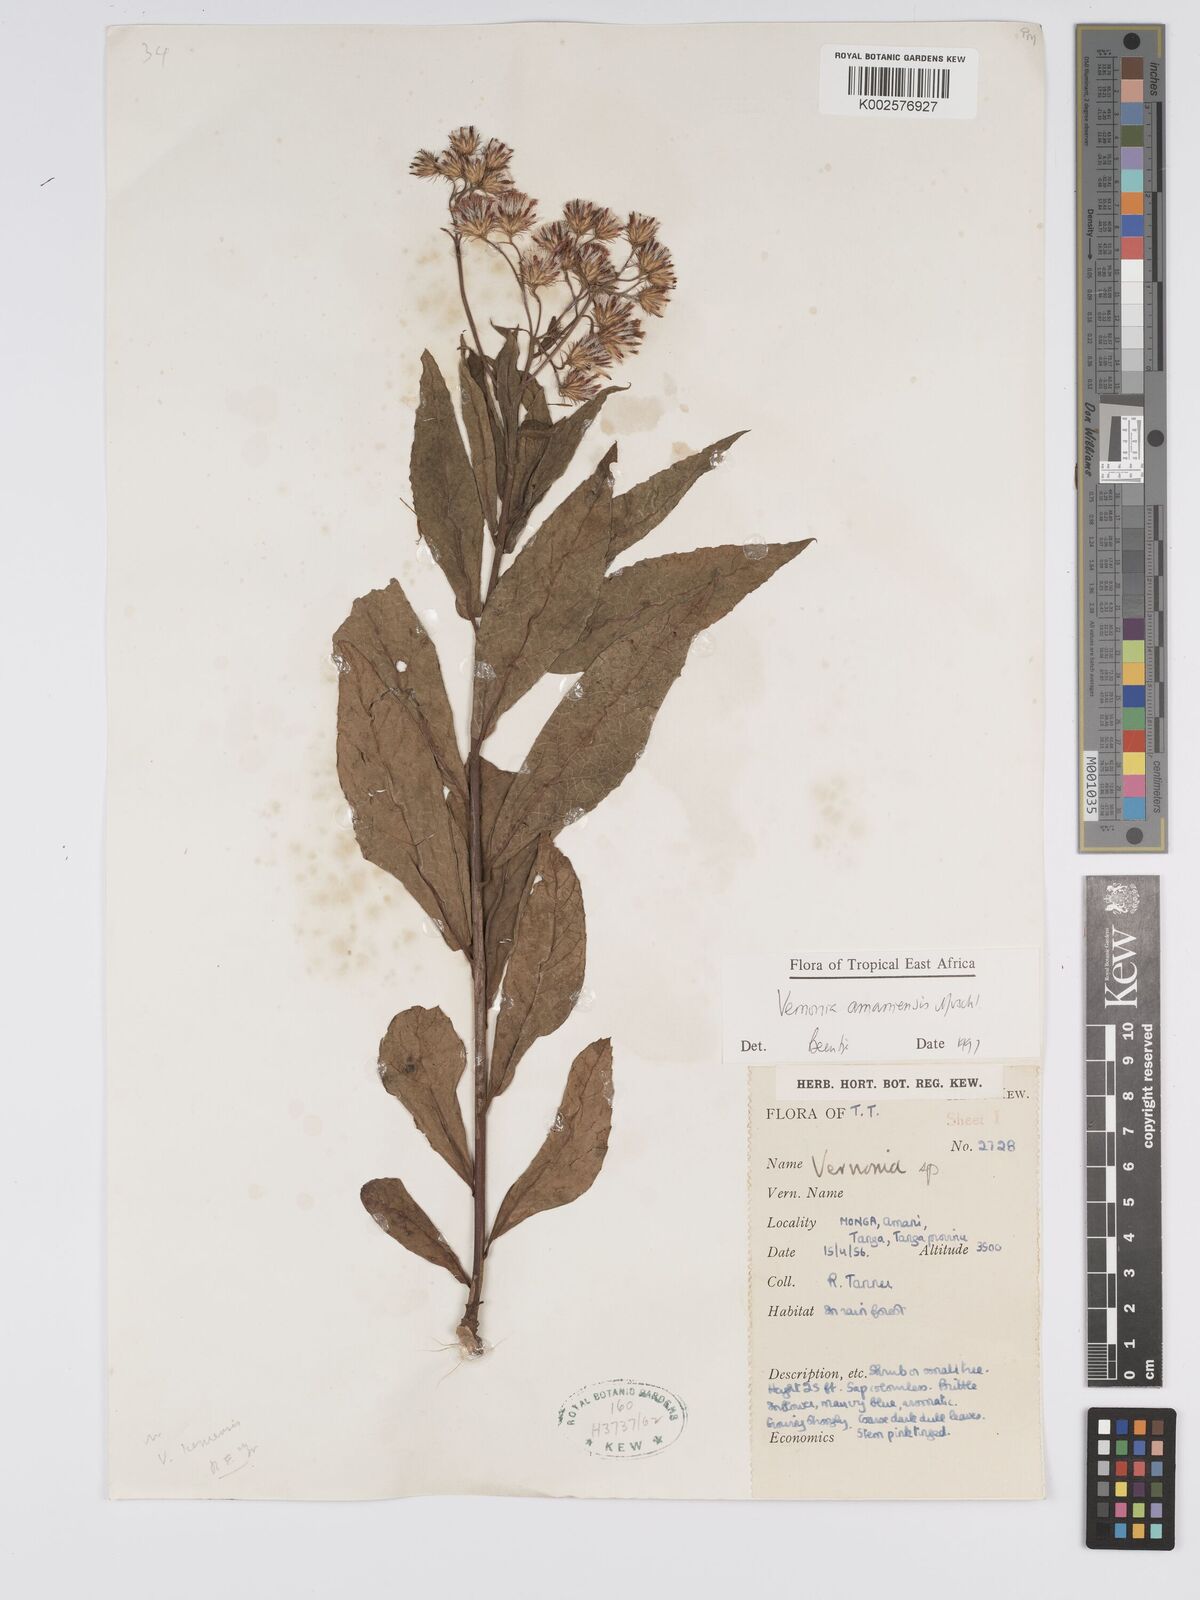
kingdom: Plantae
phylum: Tracheophyta
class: Magnoliopsida
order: Asterales
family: Asteraceae
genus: Jeffreycia
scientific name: Jeffreycia amaniensis
